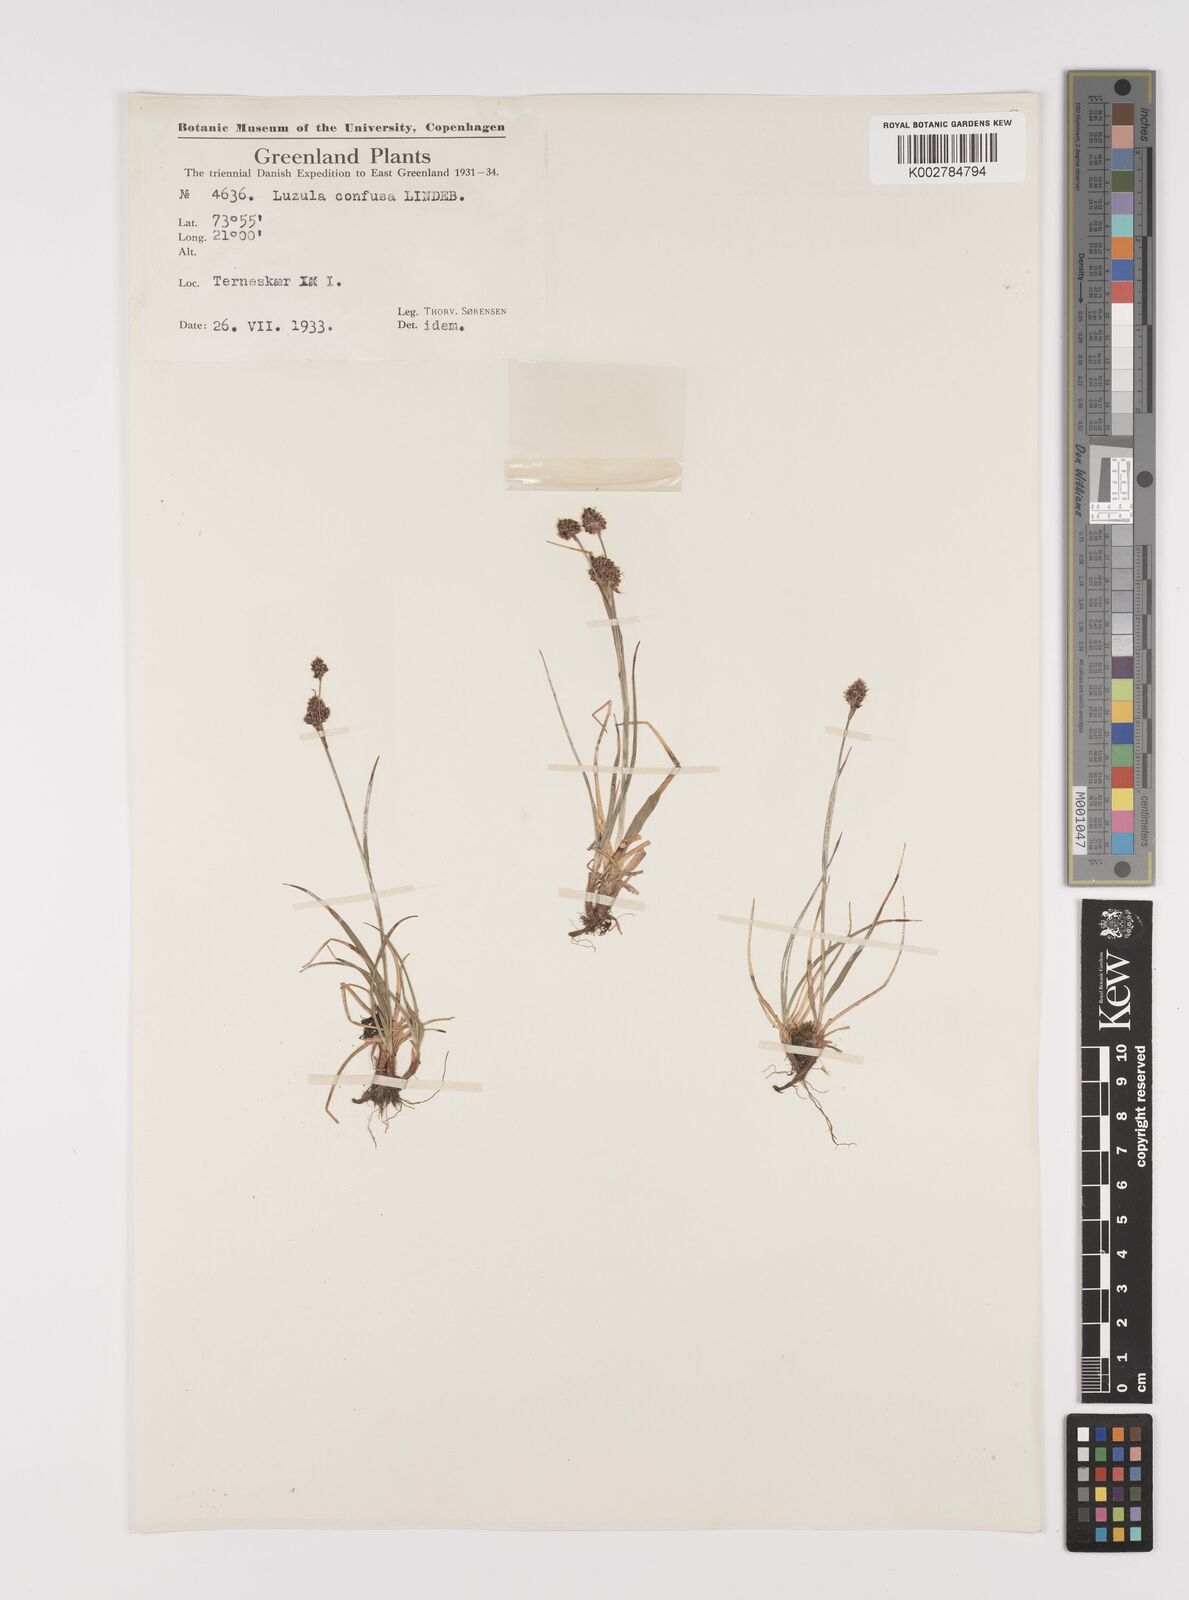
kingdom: Plantae
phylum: Tracheophyta
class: Liliopsida
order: Poales
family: Juncaceae
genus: Luzula
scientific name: Luzula confusa
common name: Northern wood rush
